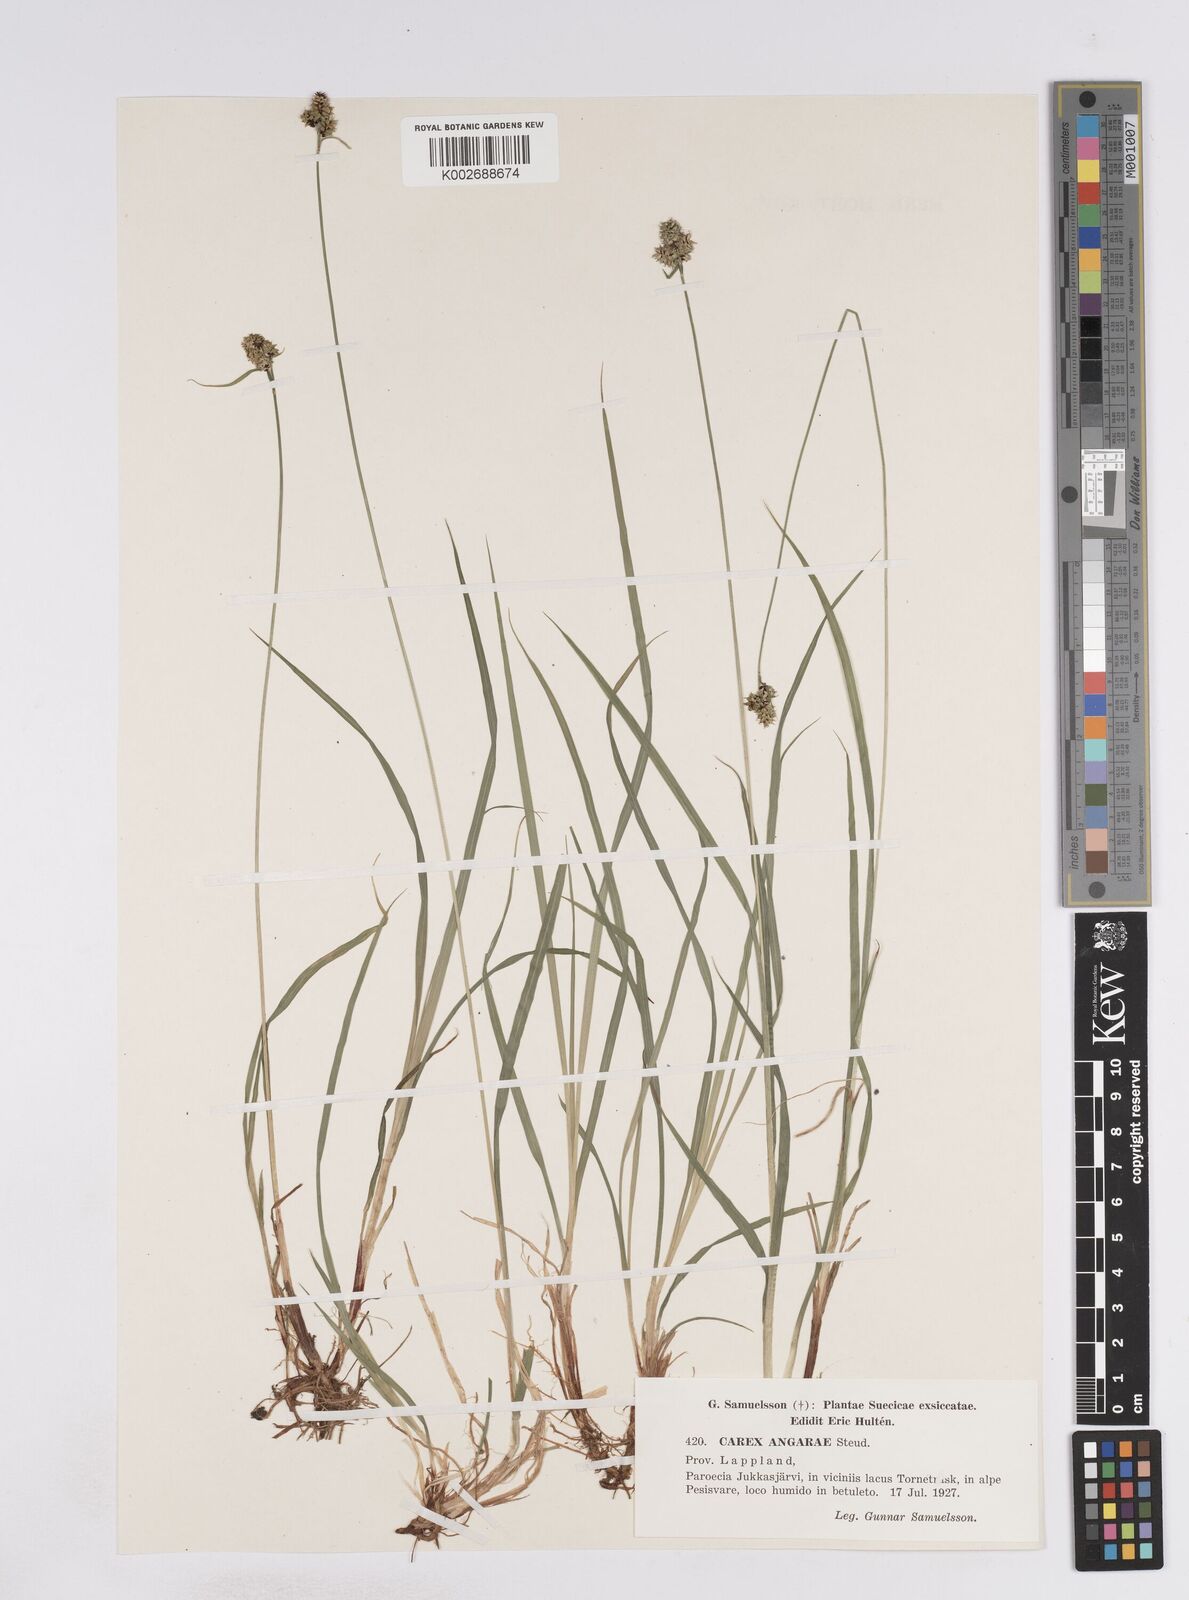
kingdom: Plantae
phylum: Tracheophyta
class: Liliopsida
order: Poales
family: Cyperaceae
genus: Carex
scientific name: Carex media
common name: Alpine sedge
